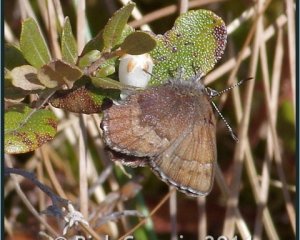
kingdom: Animalia
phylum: Arthropoda
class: Insecta
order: Lepidoptera
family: Lycaenidae
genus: Incisalia
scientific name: Incisalia irioides
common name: Brown Elfin
